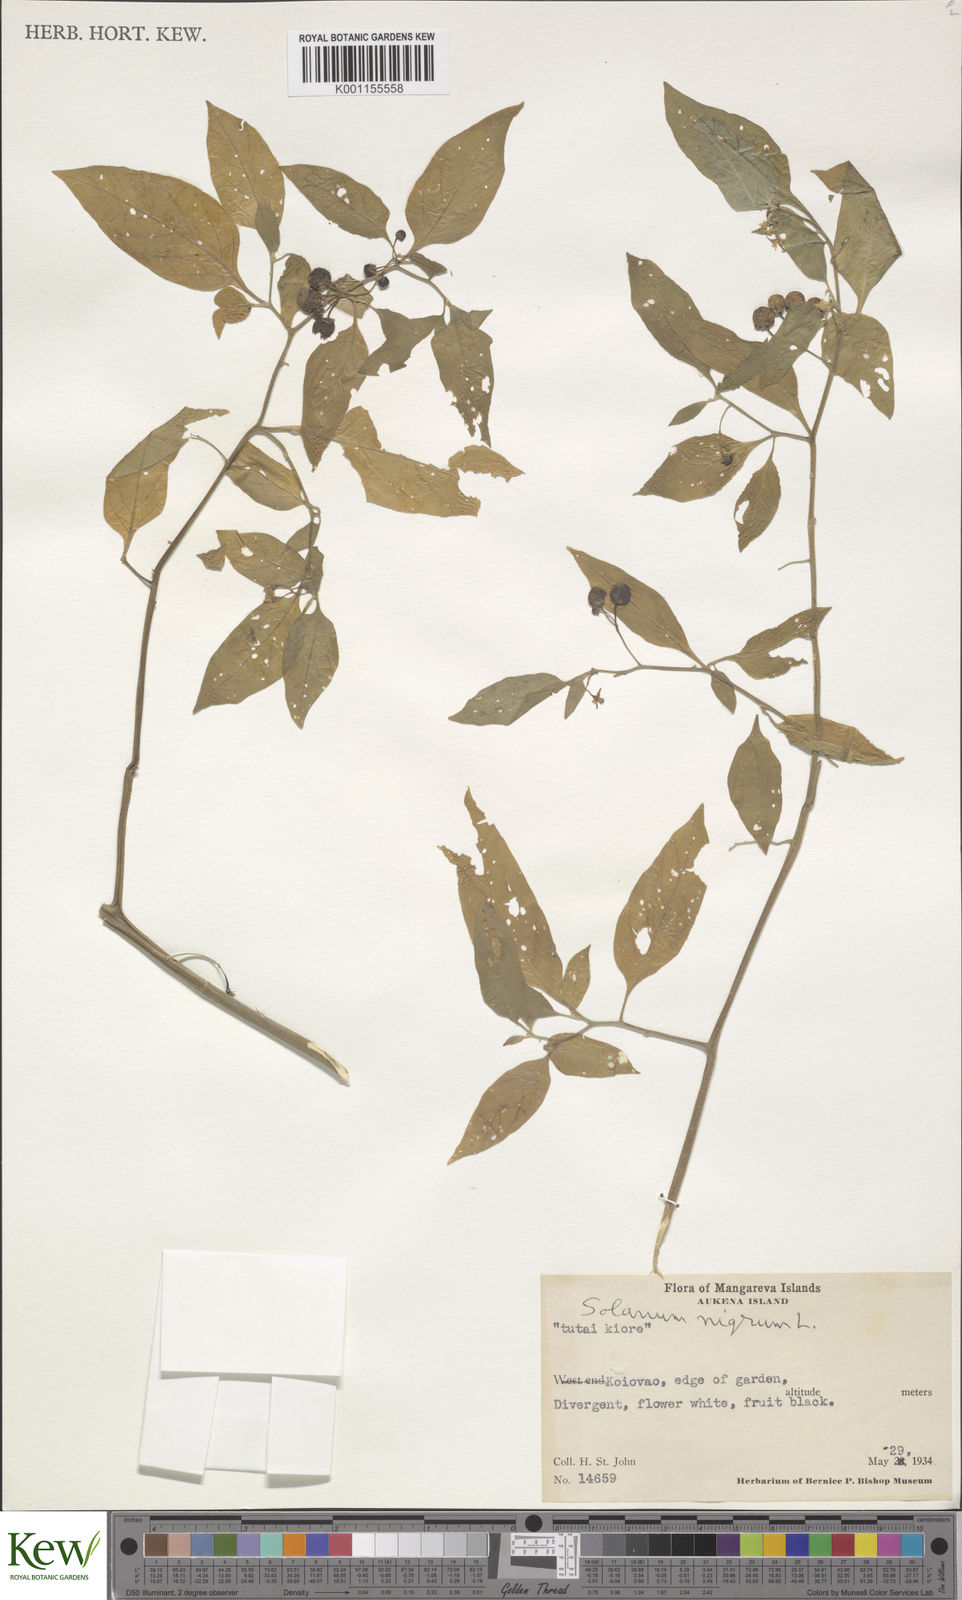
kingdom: Plantae
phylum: Tracheophyta
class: Magnoliopsida
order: Solanales
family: Solanaceae
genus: Solanum
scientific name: Solanum americanum
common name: American black nightshade
